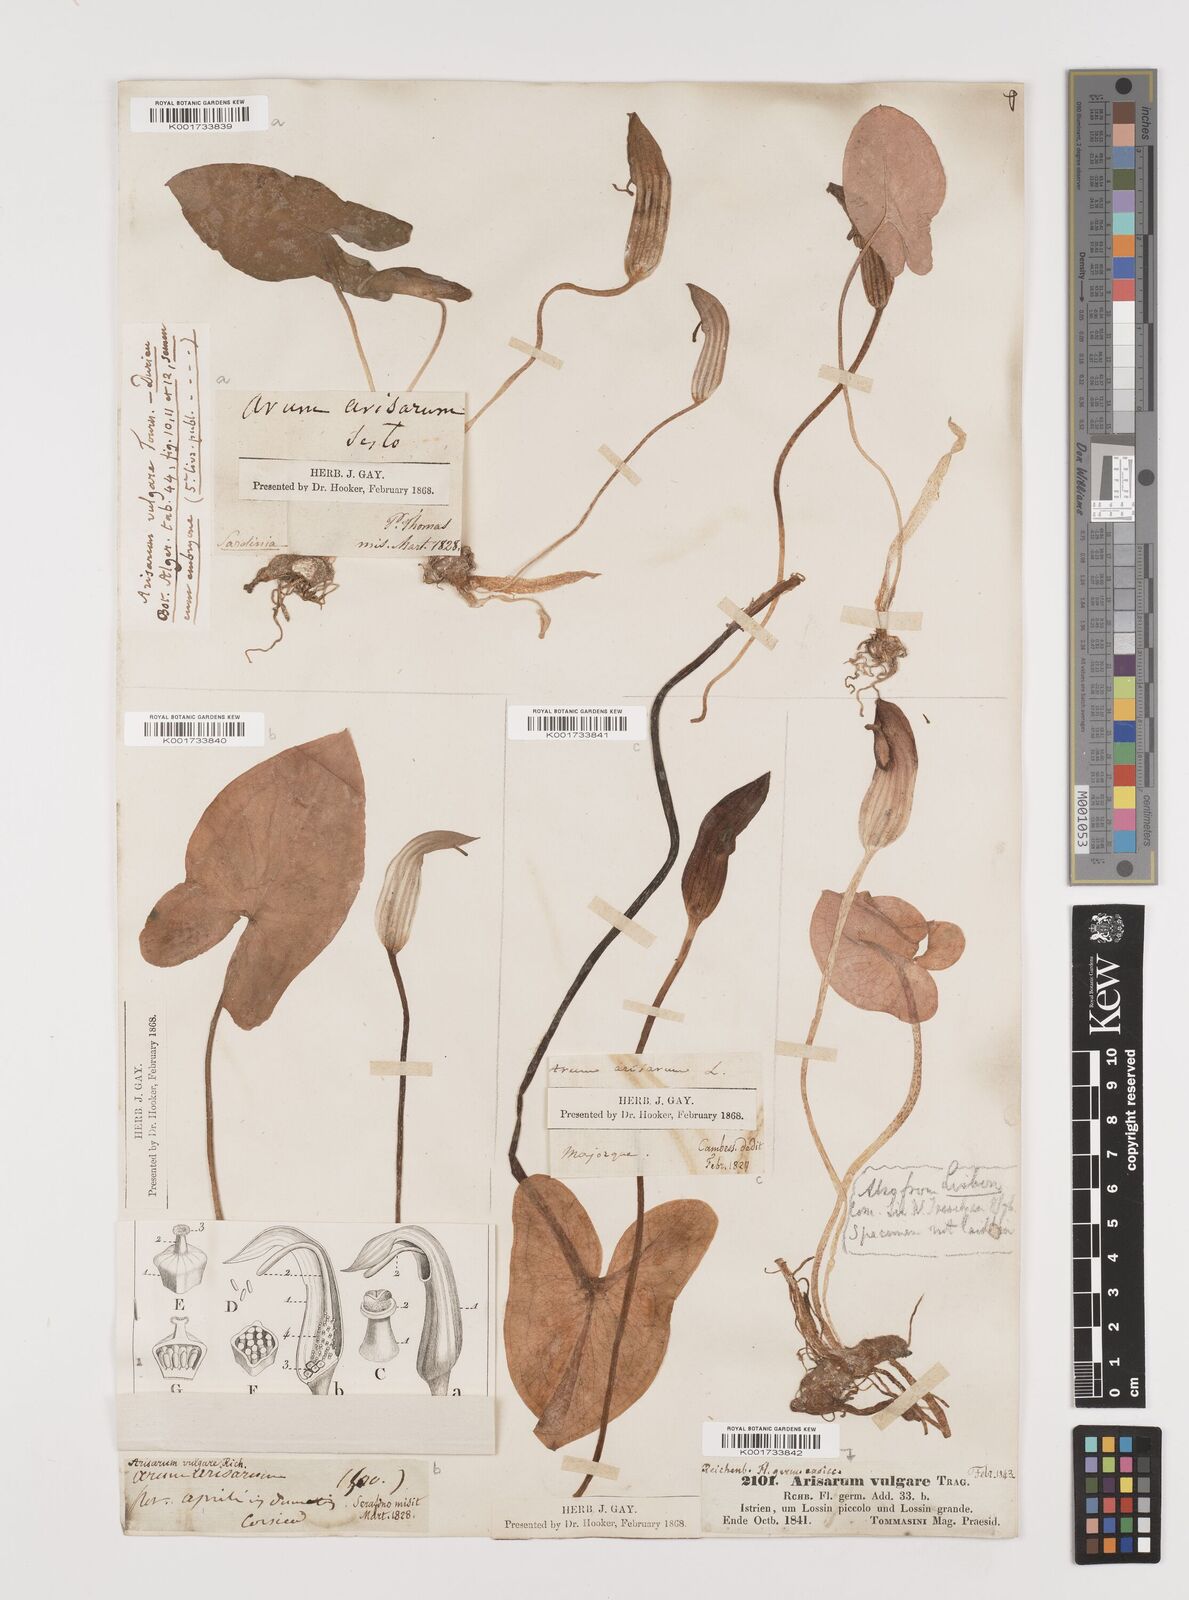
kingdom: Plantae
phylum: Tracheophyta
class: Liliopsida
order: Alismatales
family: Araceae
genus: Arisarum
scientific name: Arisarum vulgare
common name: Common arisarum
